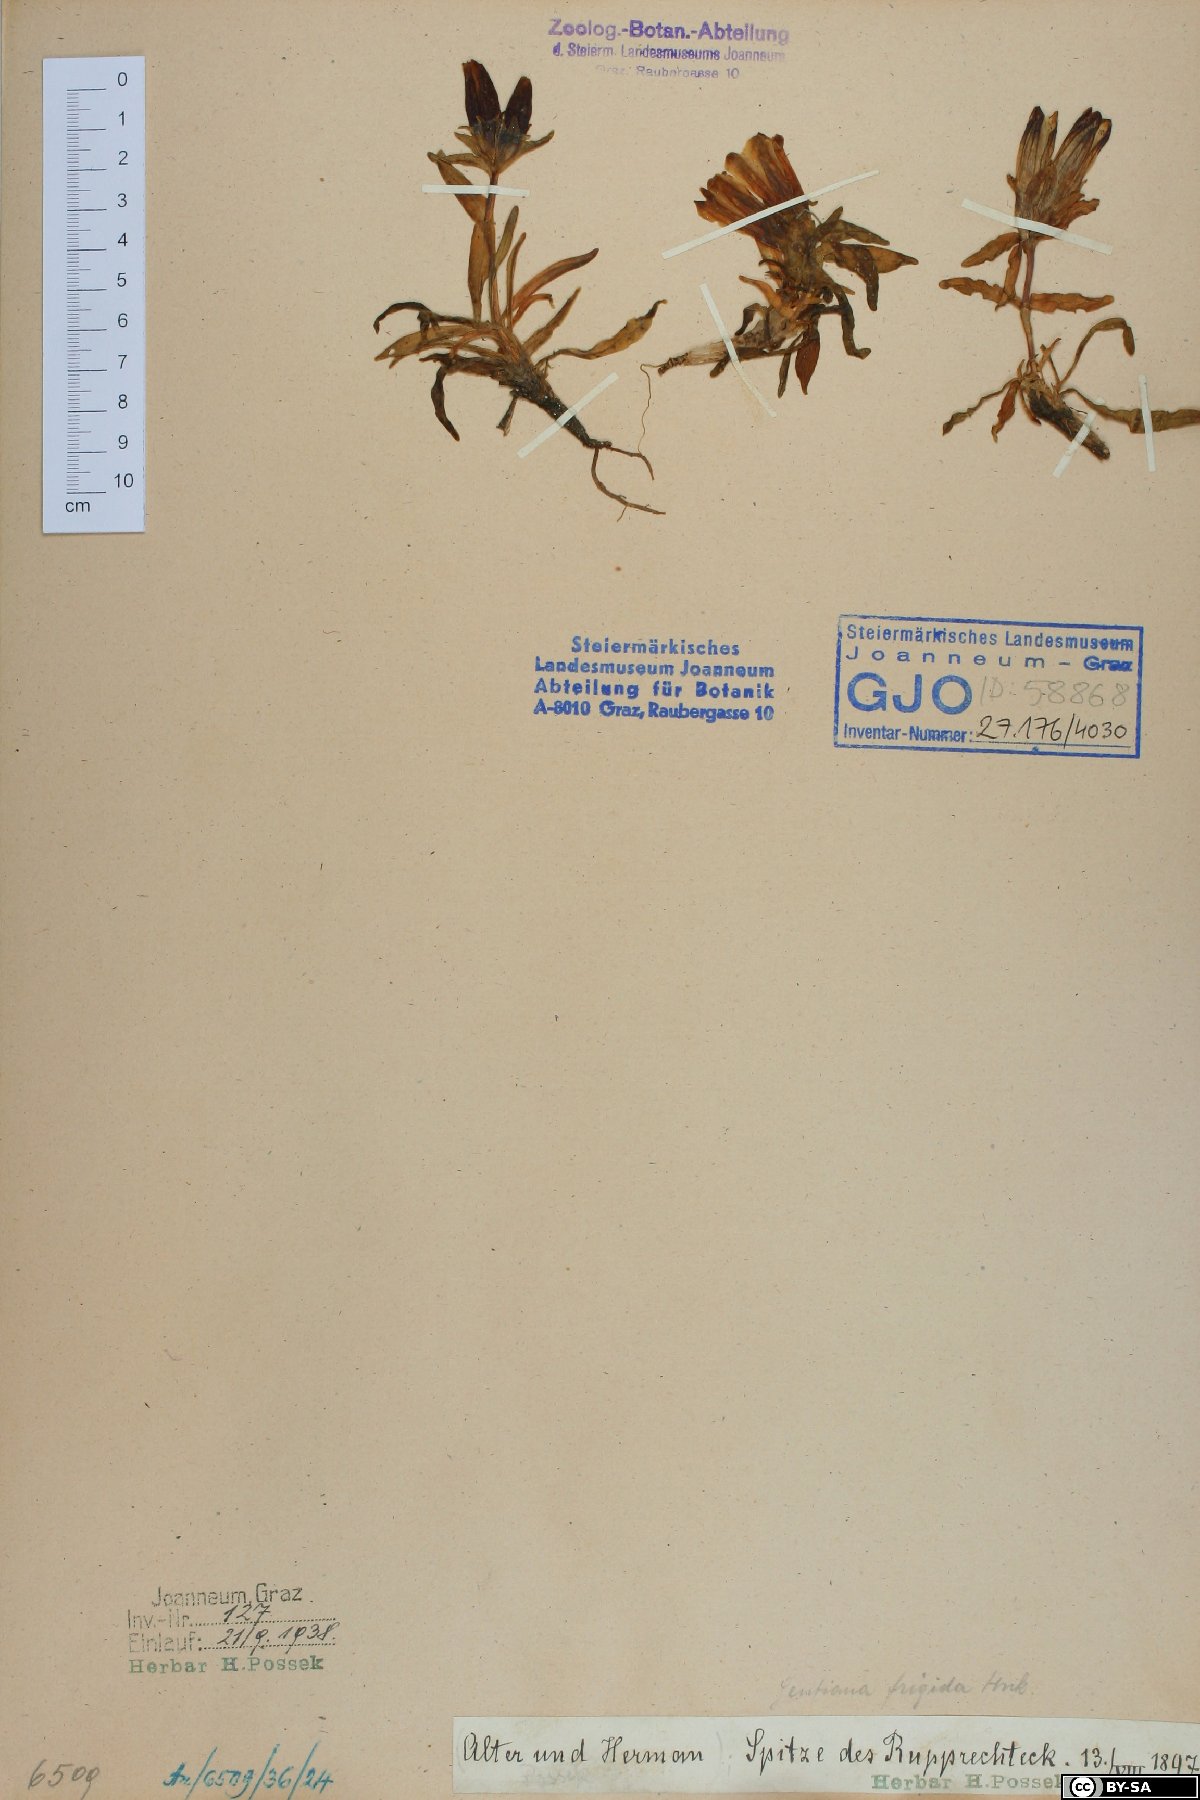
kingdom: Plantae
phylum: Tracheophyta
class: Magnoliopsida
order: Gentianales
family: Gentianaceae
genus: Gentiana
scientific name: Gentiana frigida
